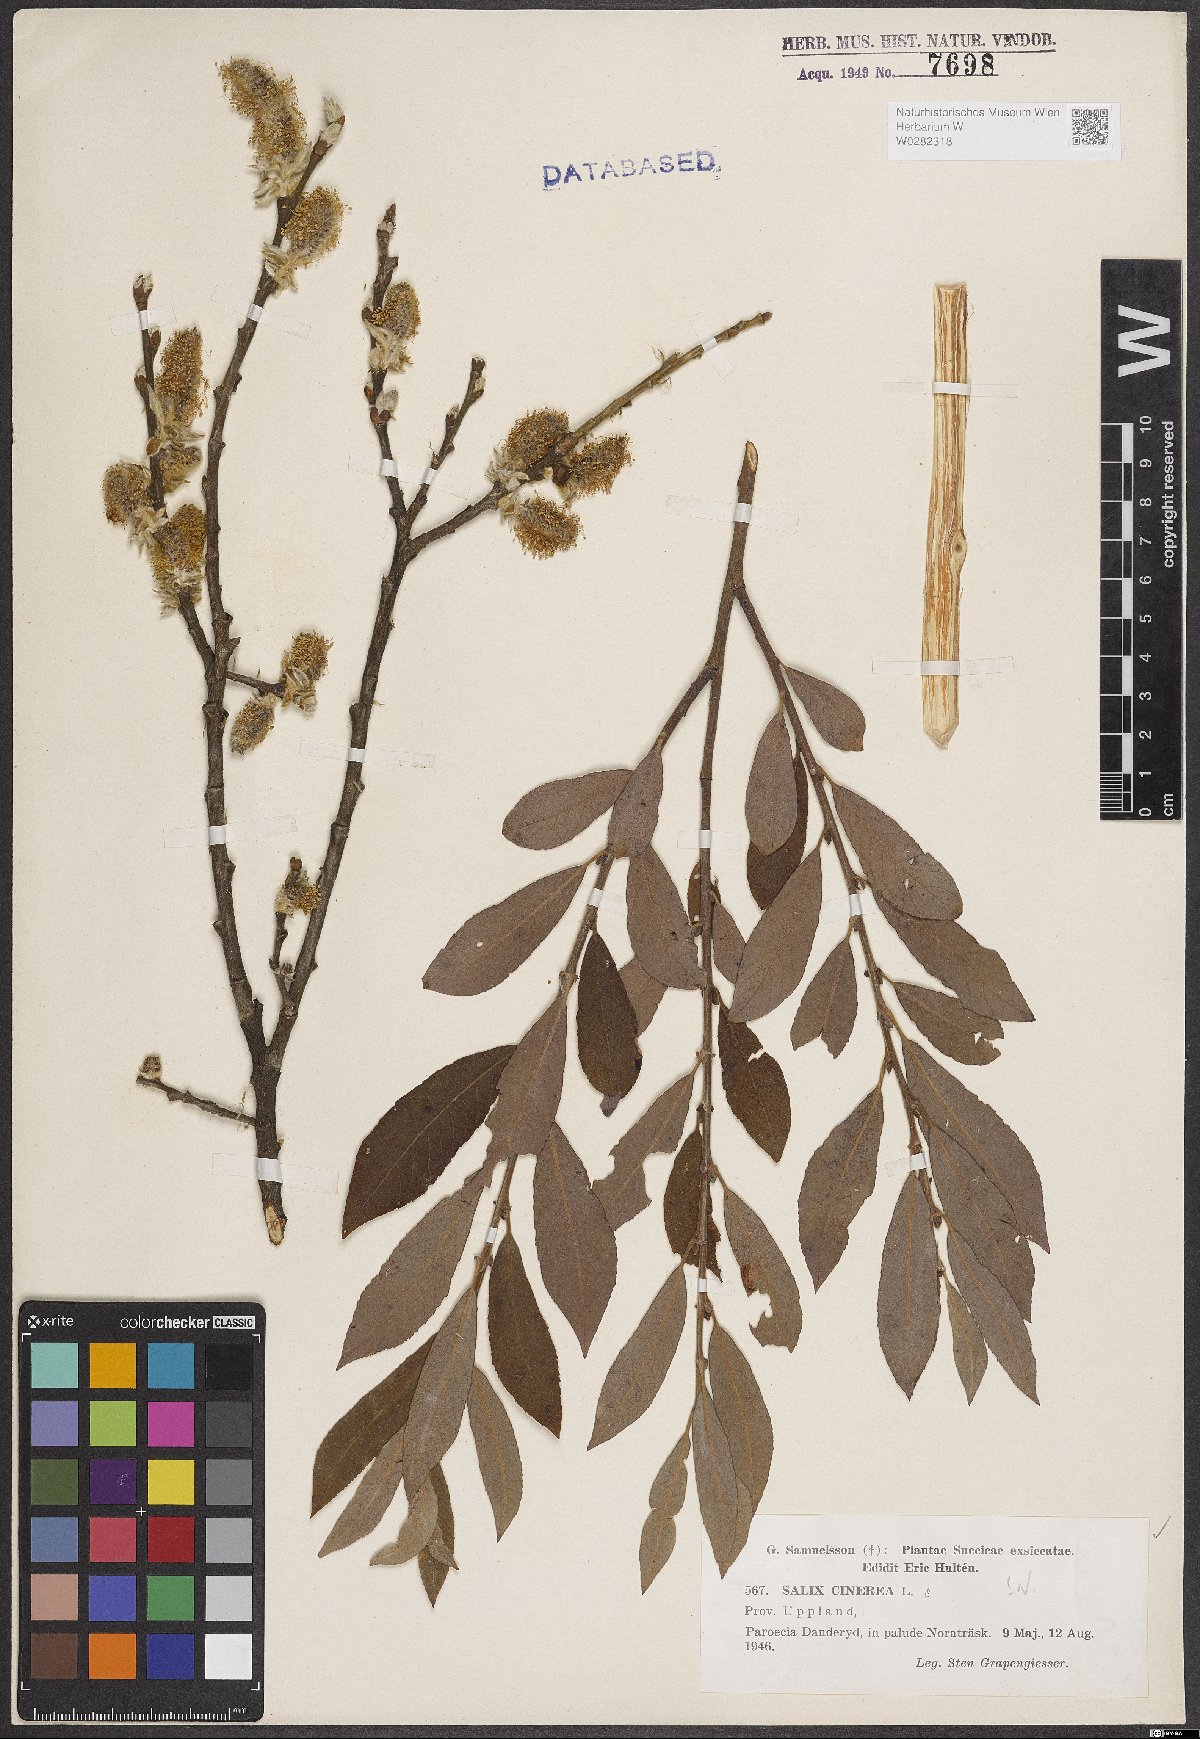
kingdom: Plantae
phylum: Tracheophyta
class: Magnoliopsida
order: Malpighiales
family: Salicaceae
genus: Salix
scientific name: Salix cinerea
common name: Common sallow
